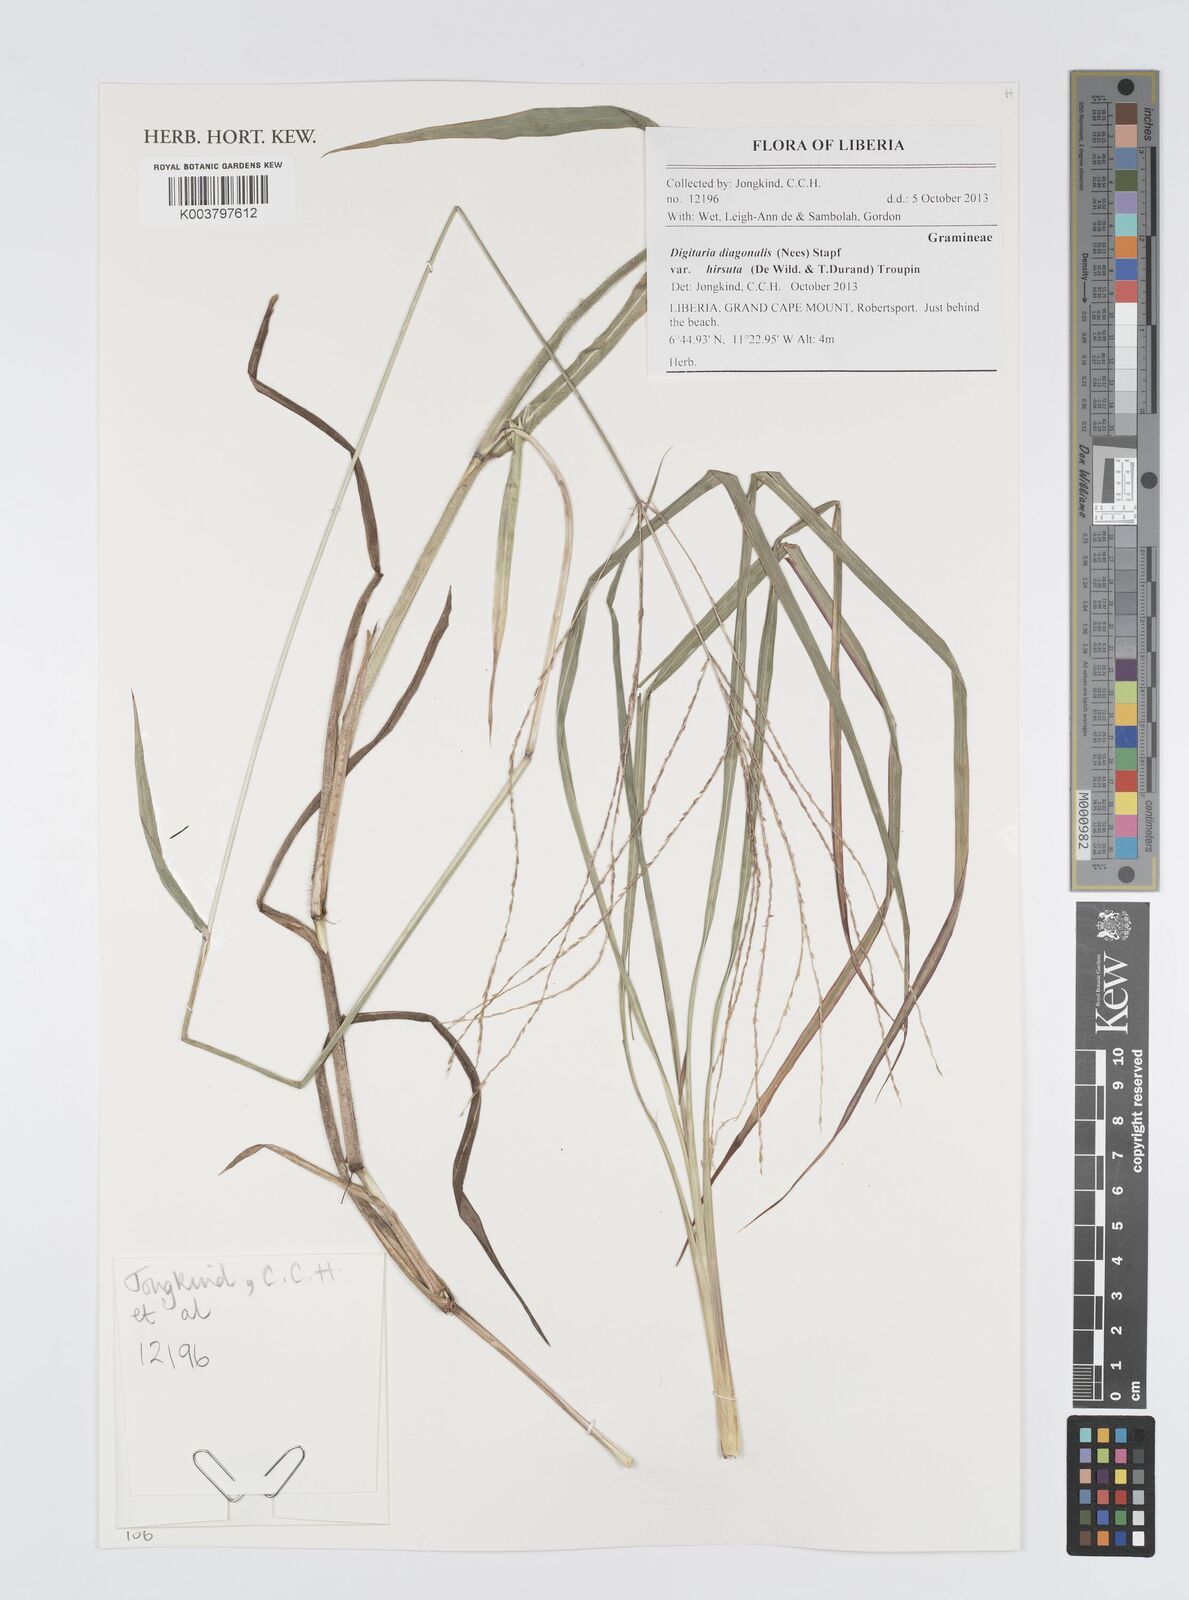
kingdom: Plantae
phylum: Tracheophyta
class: Liliopsida
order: Poales
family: Poaceae
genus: Digitaria
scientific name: Digitaria diagonalis
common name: Brown-seed finger grass
